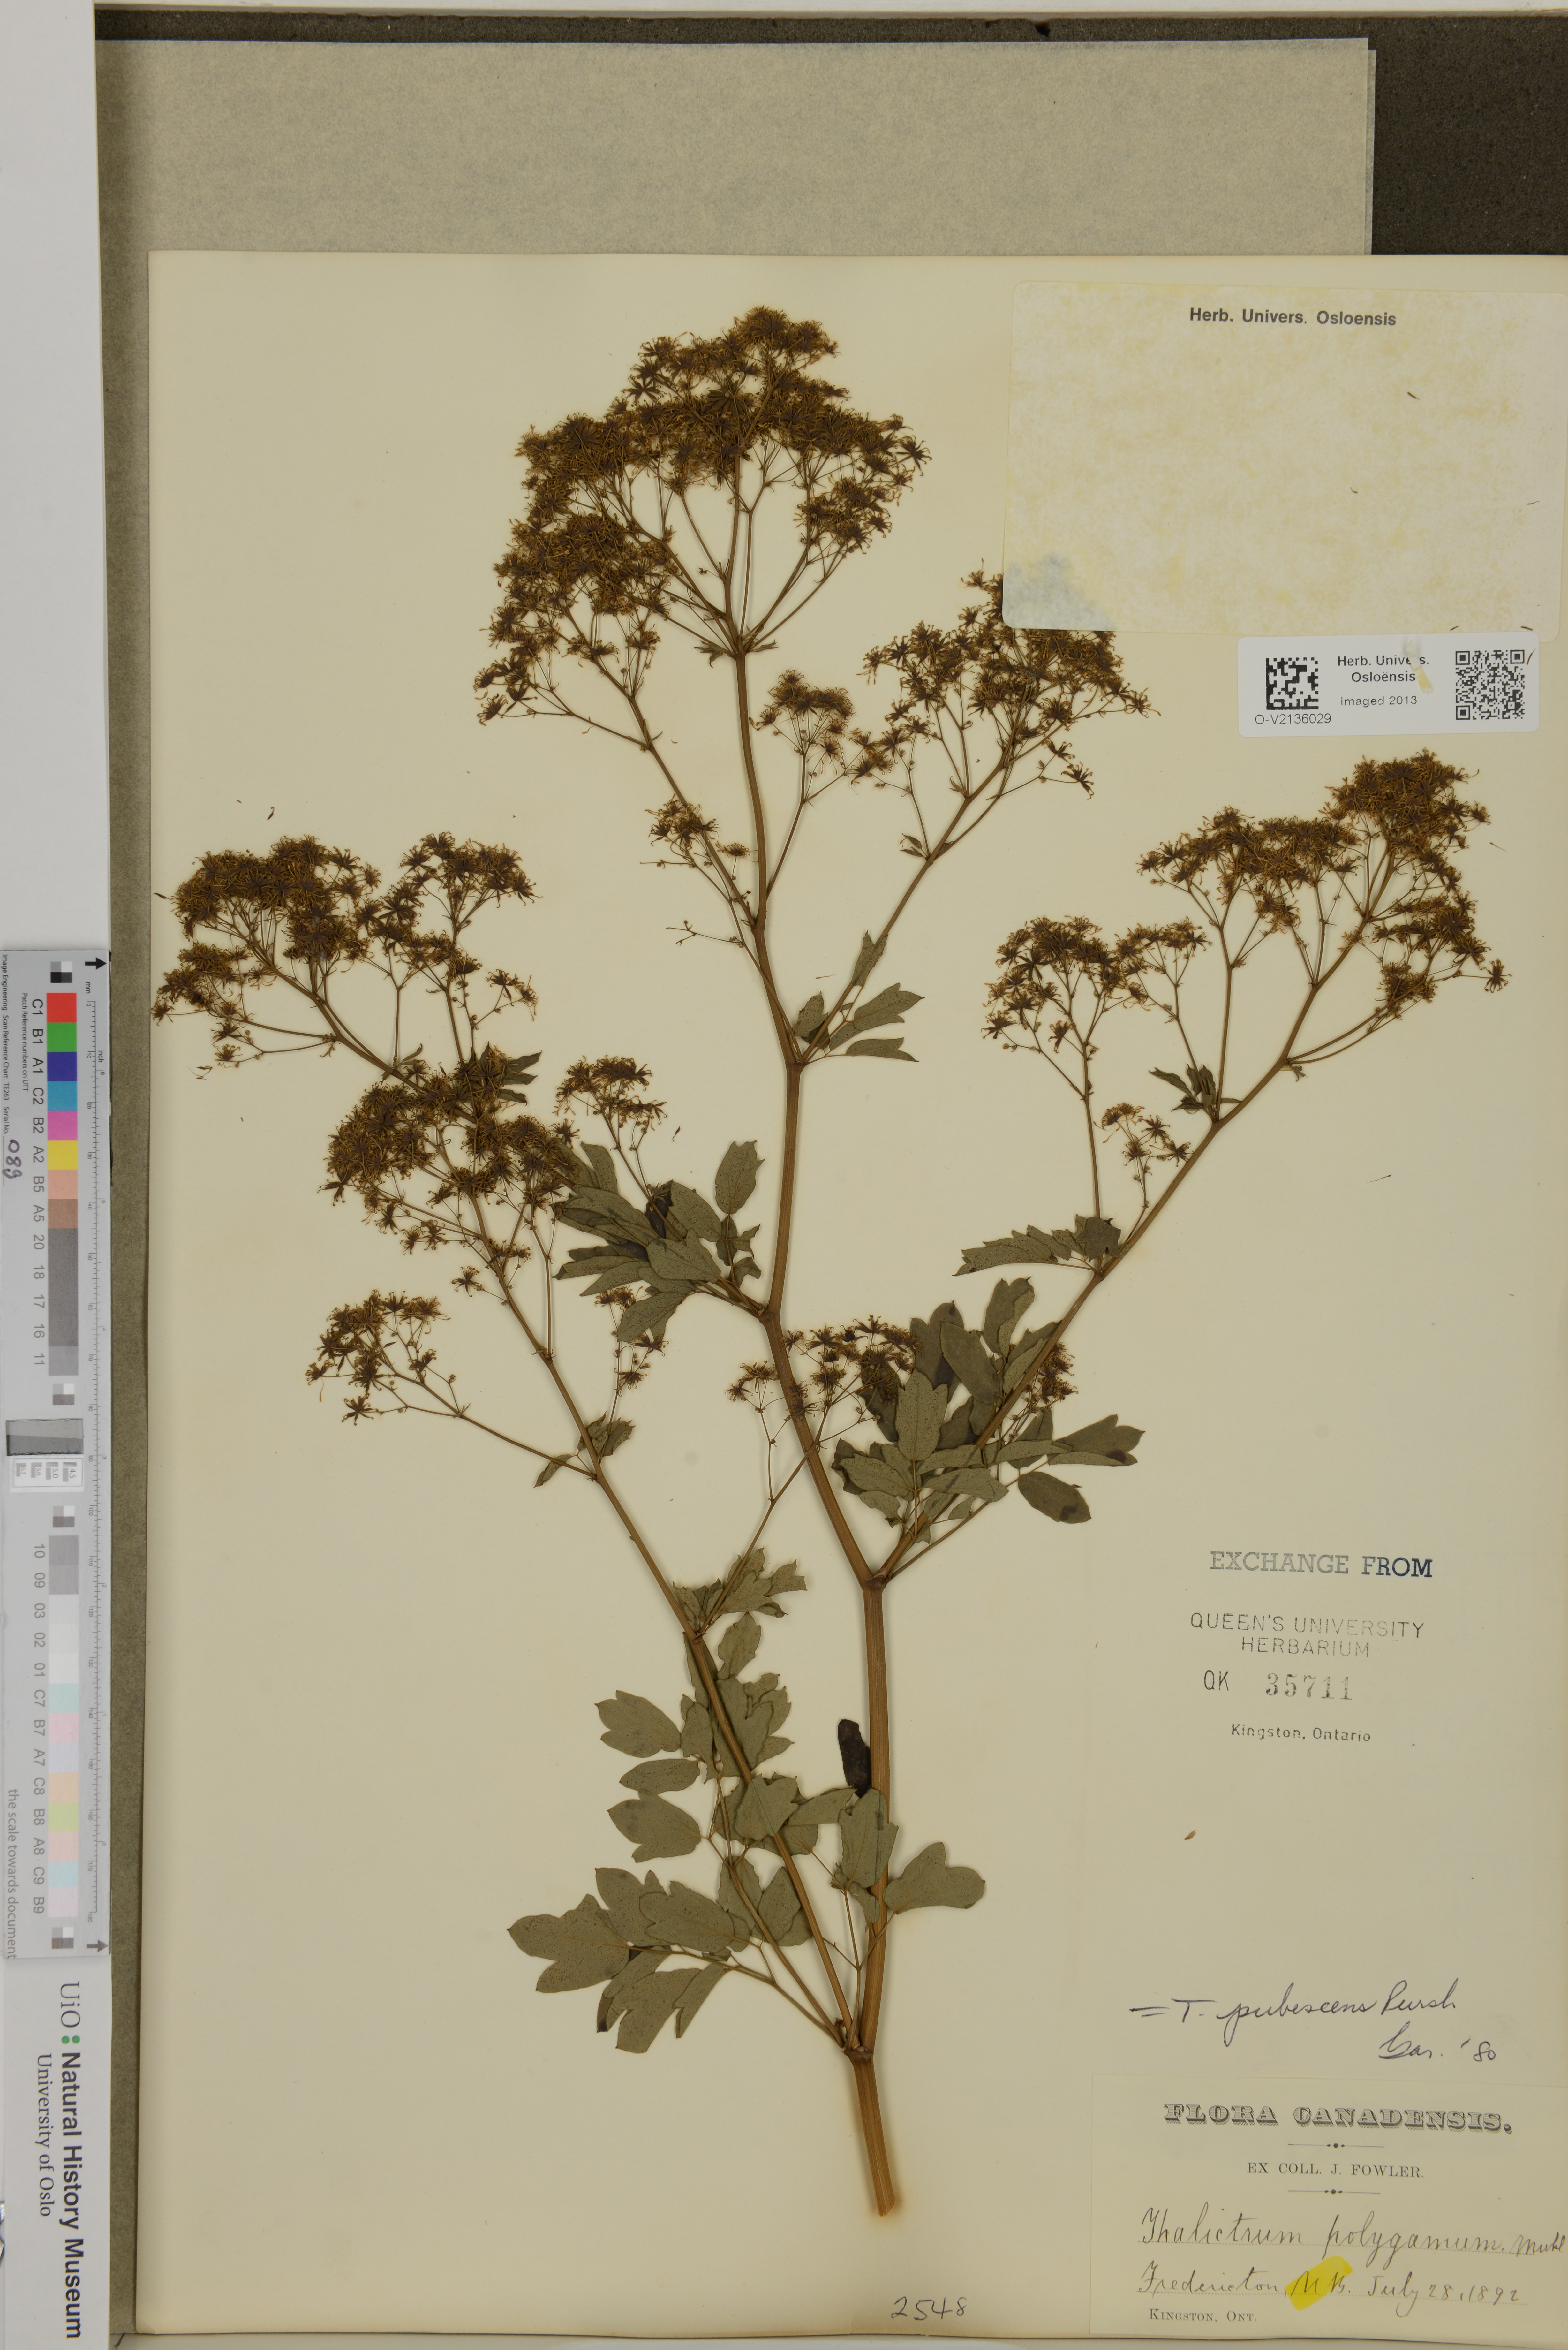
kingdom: Plantae
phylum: Tracheophyta
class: Magnoliopsida
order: Ranunculales
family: Ranunculaceae
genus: Thalictrum
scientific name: Thalictrum pubescens
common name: King-of-the-meadow
